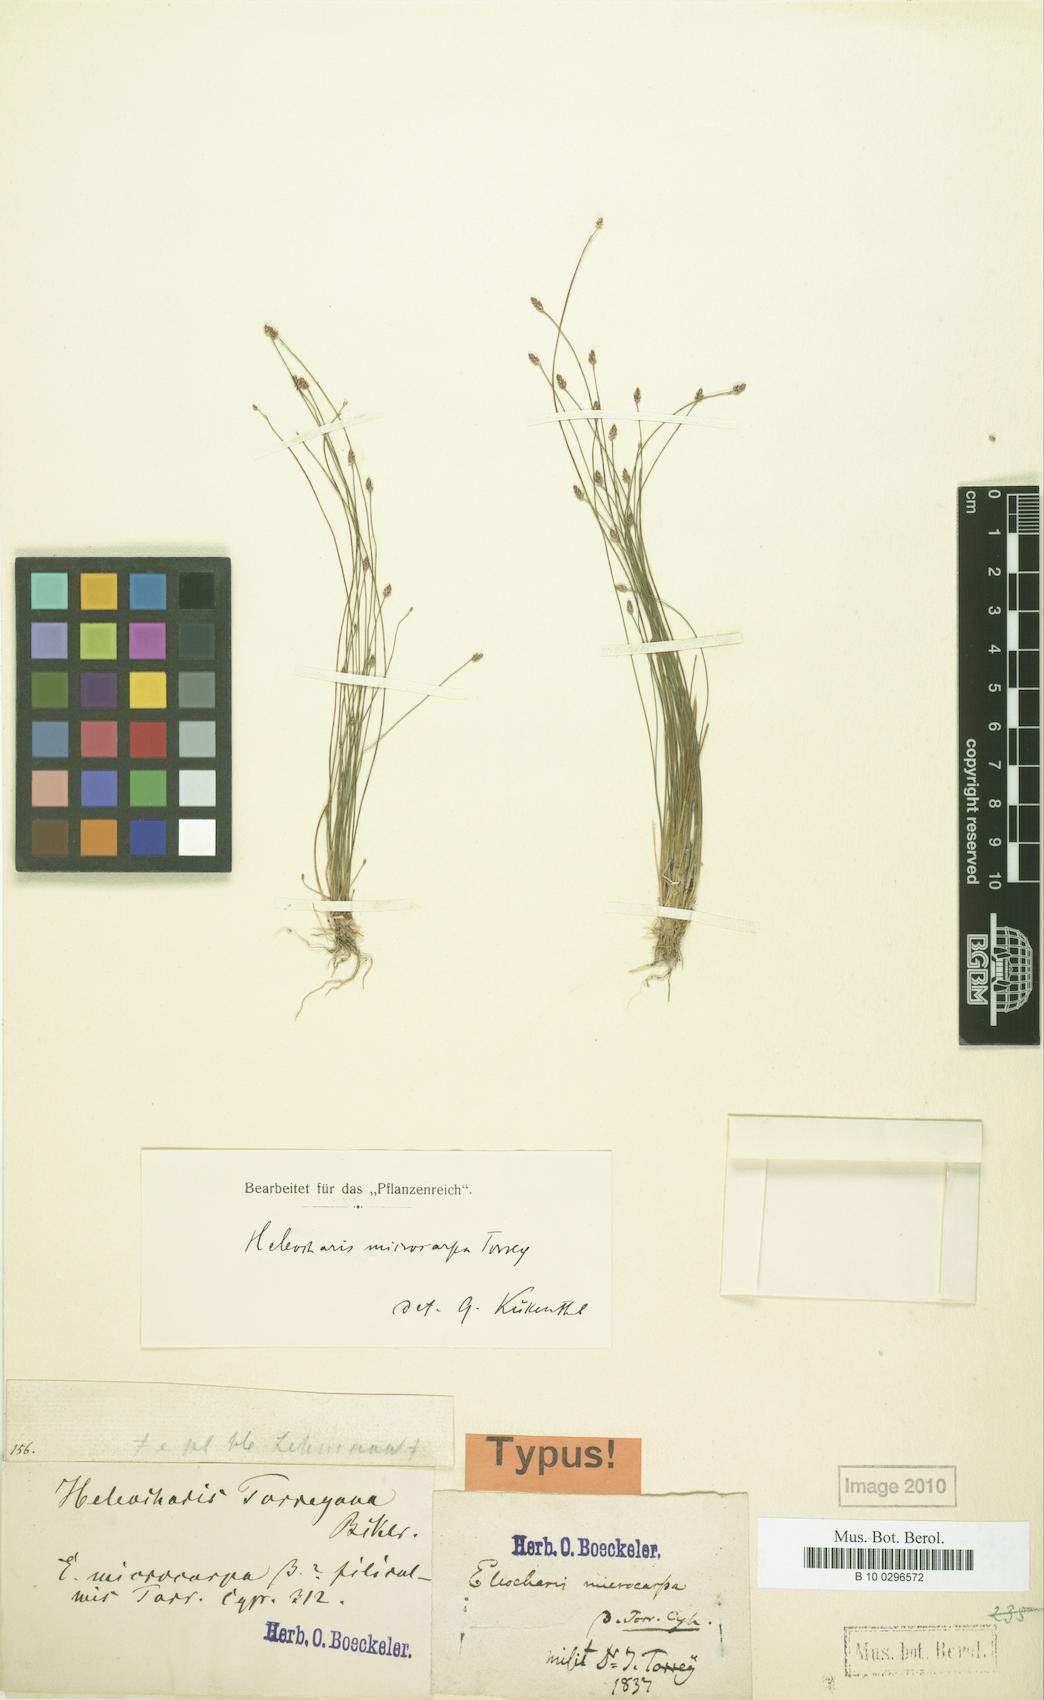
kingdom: Plantae
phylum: Tracheophyta
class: Liliopsida
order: Poales
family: Cyperaceae
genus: Eleocharis
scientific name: Eleocharis microcarpa
